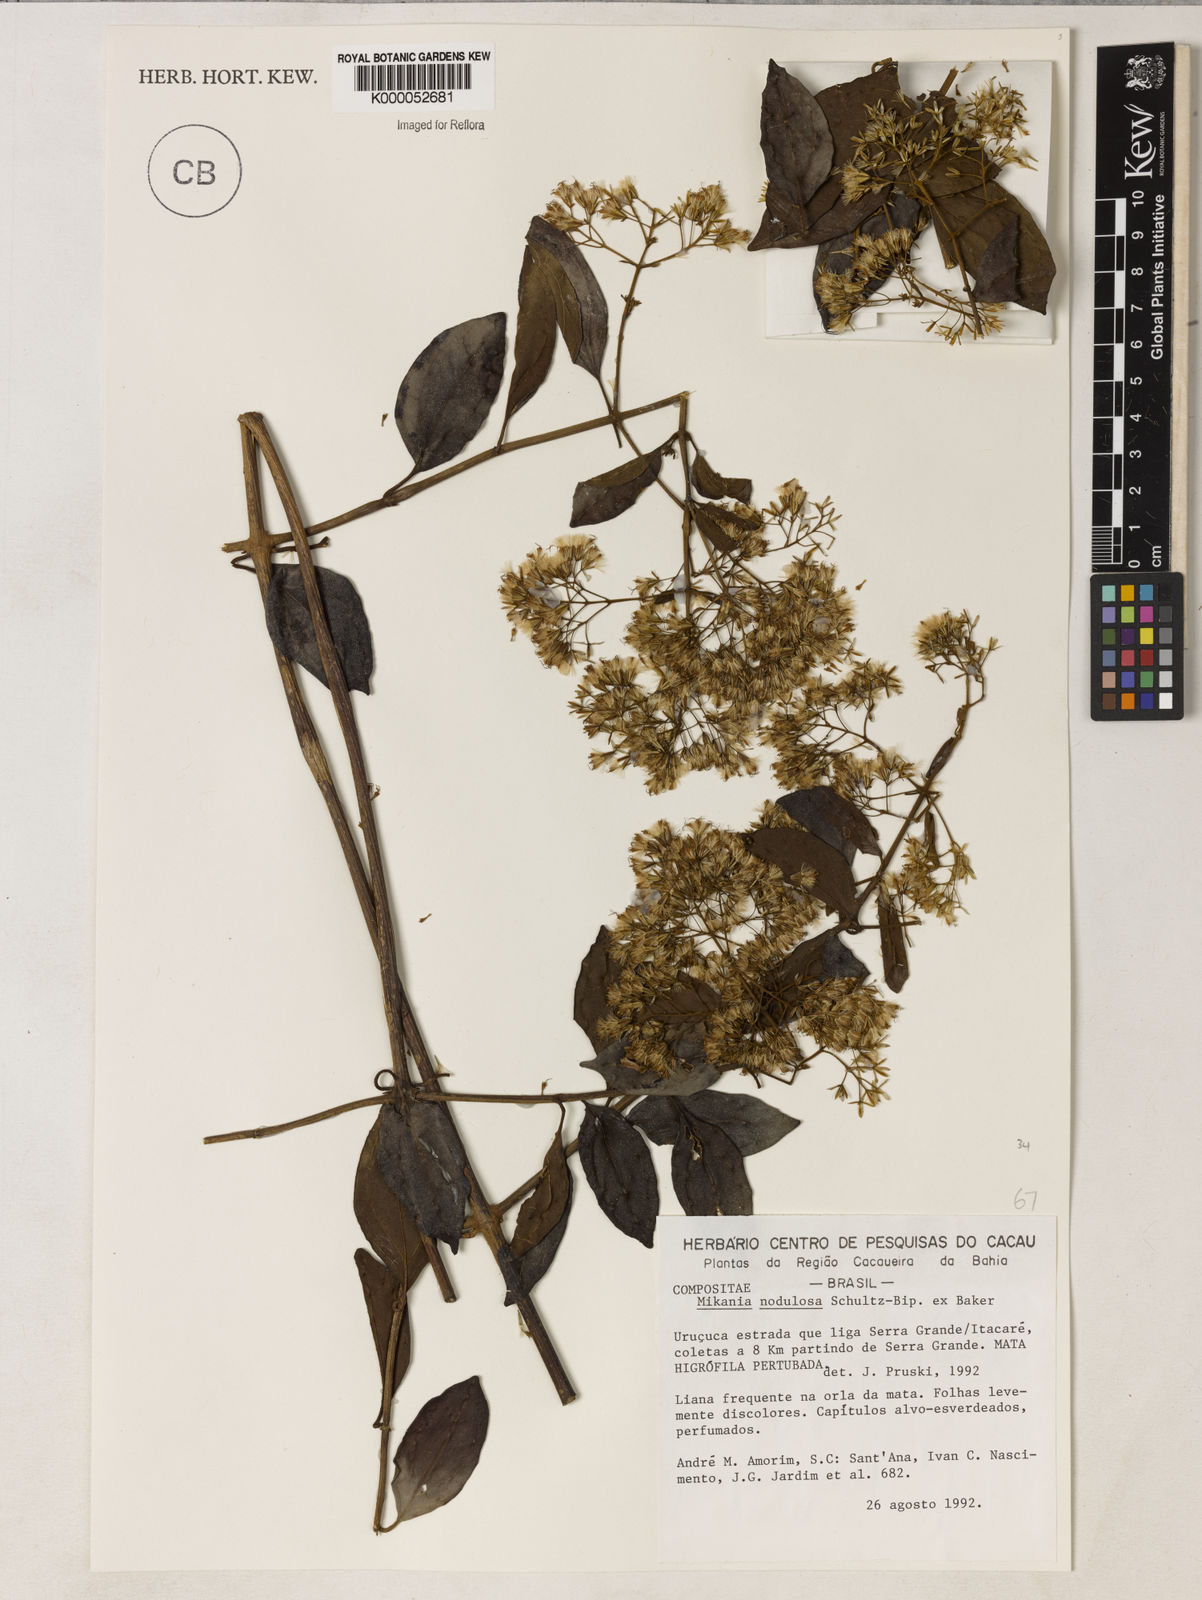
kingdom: Plantae
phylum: Tracheophyta
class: Magnoliopsida
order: Asterales
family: Asteraceae
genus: Mikania
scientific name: Mikania nodulosa
